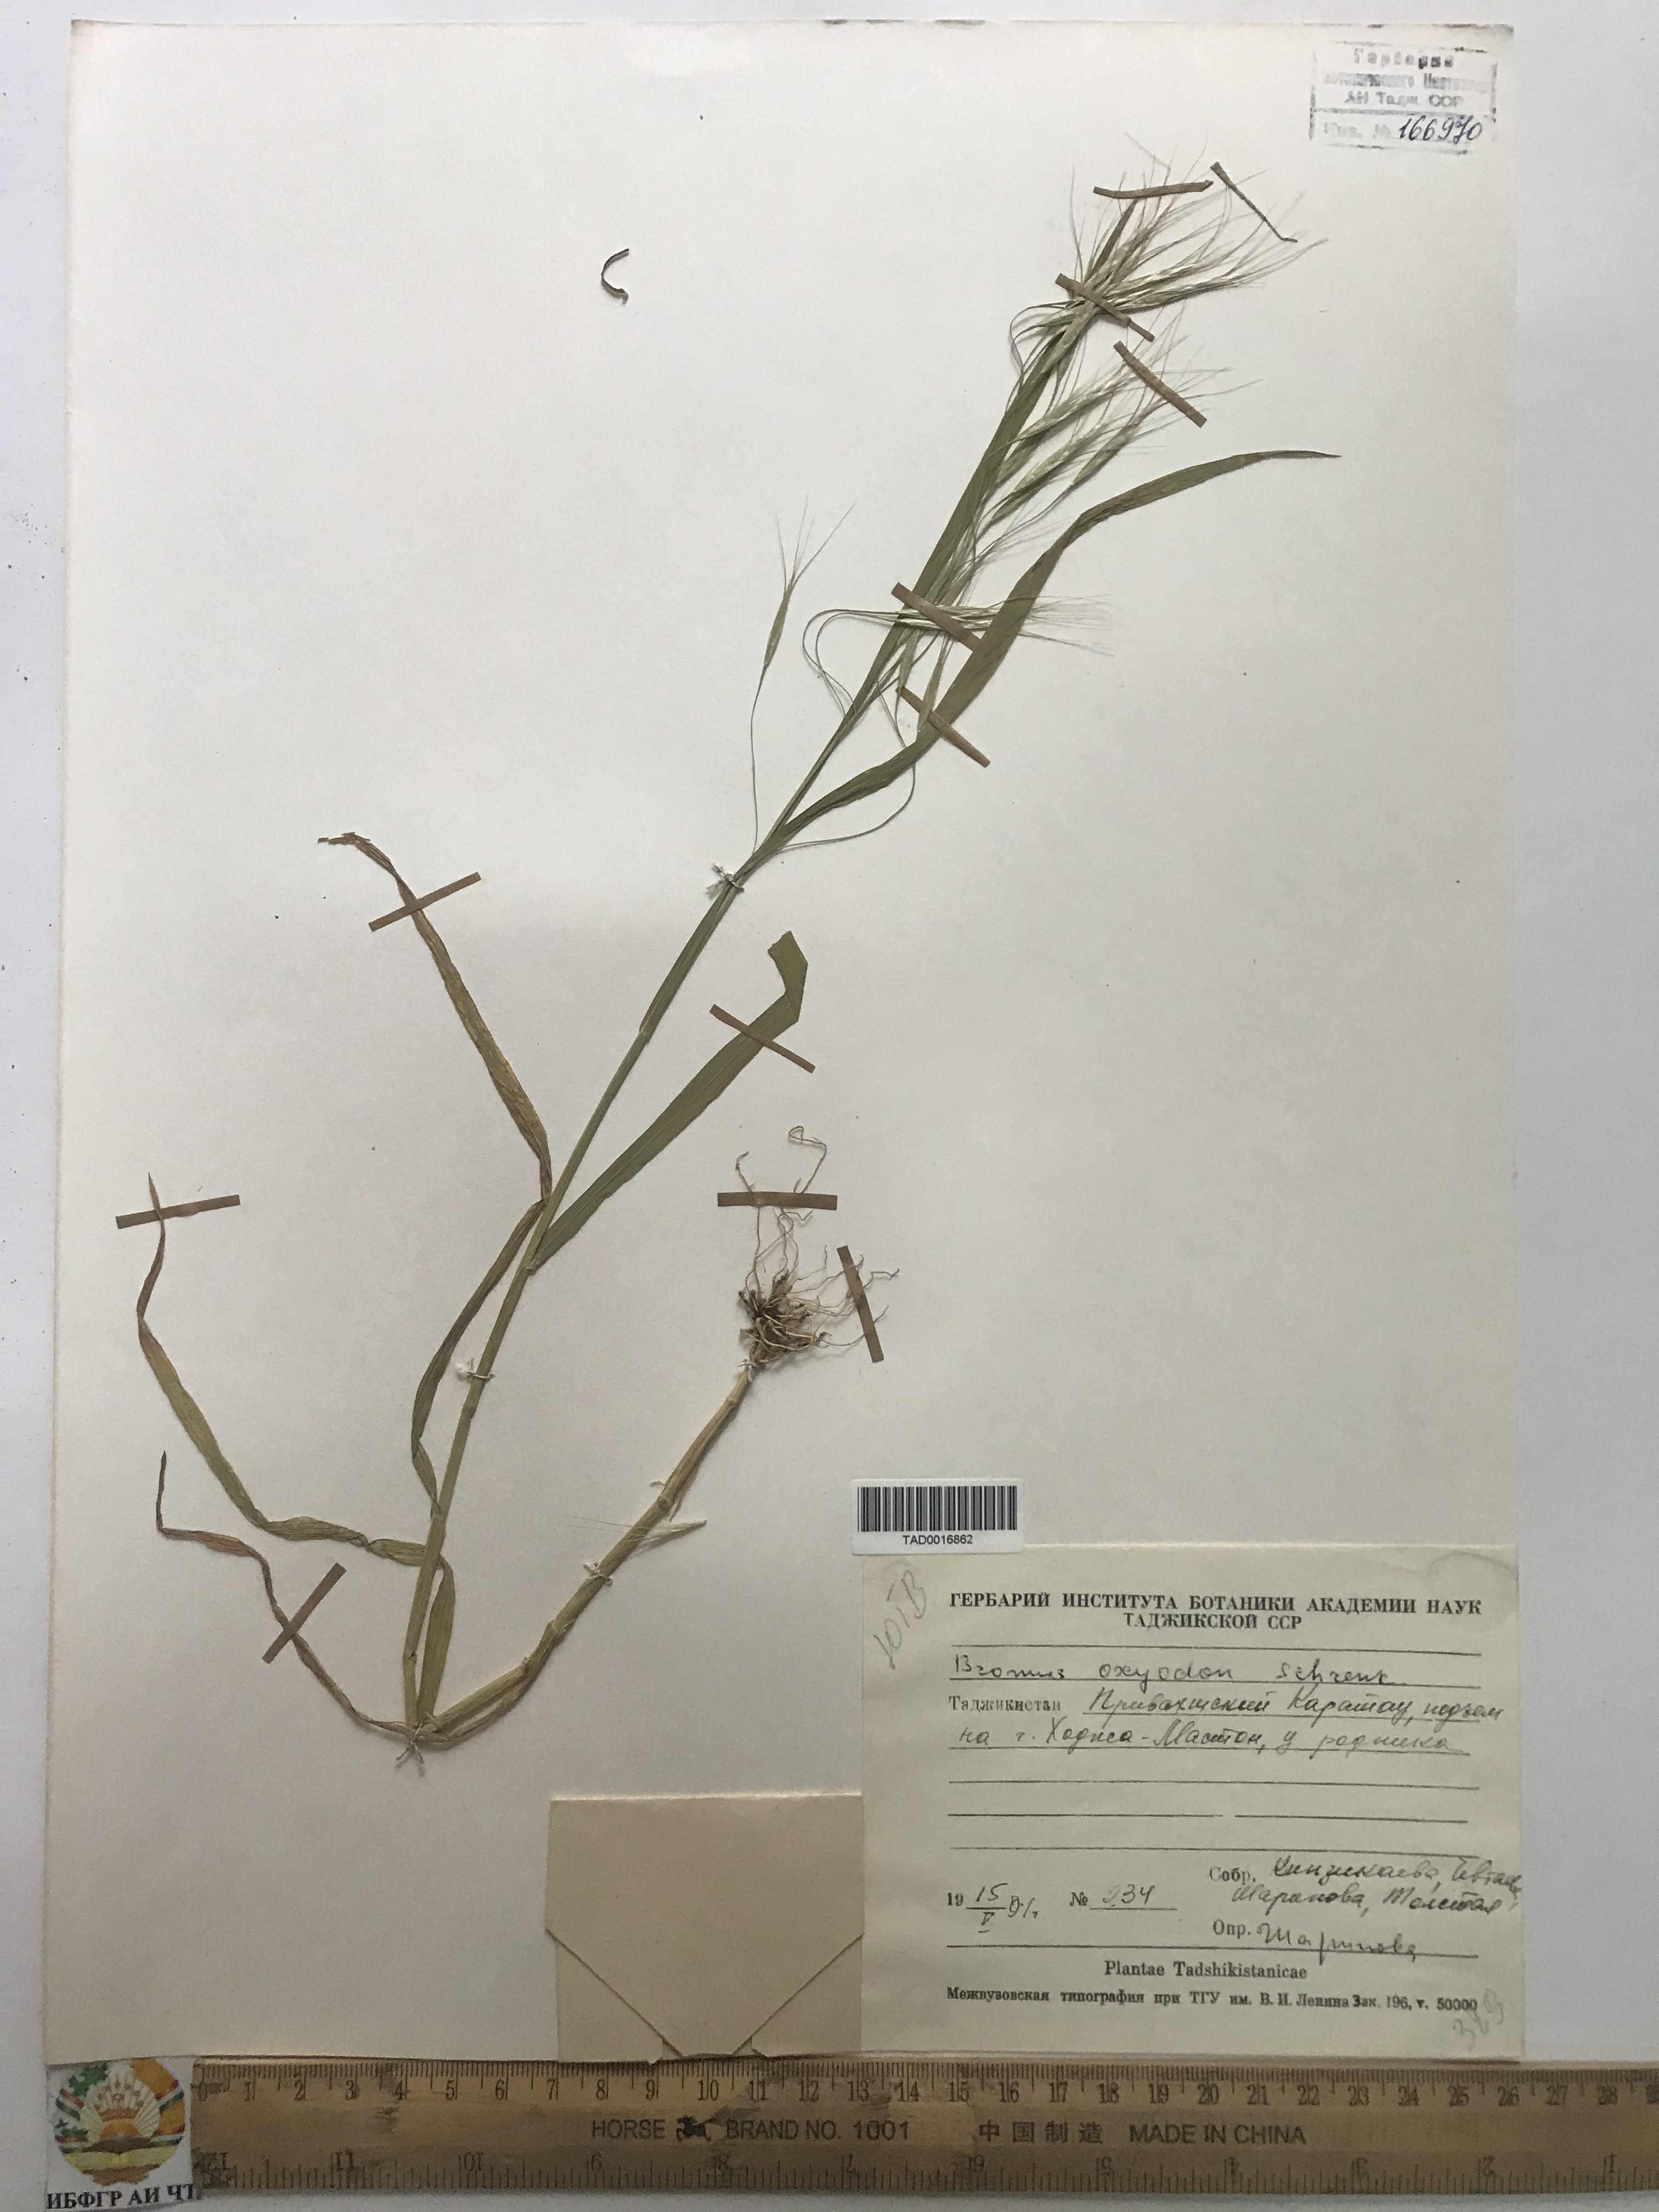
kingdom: Plantae
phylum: Tracheophyta
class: Liliopsida
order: Poales
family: Poaceae
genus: Bromus
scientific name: Bromus oxyodon
